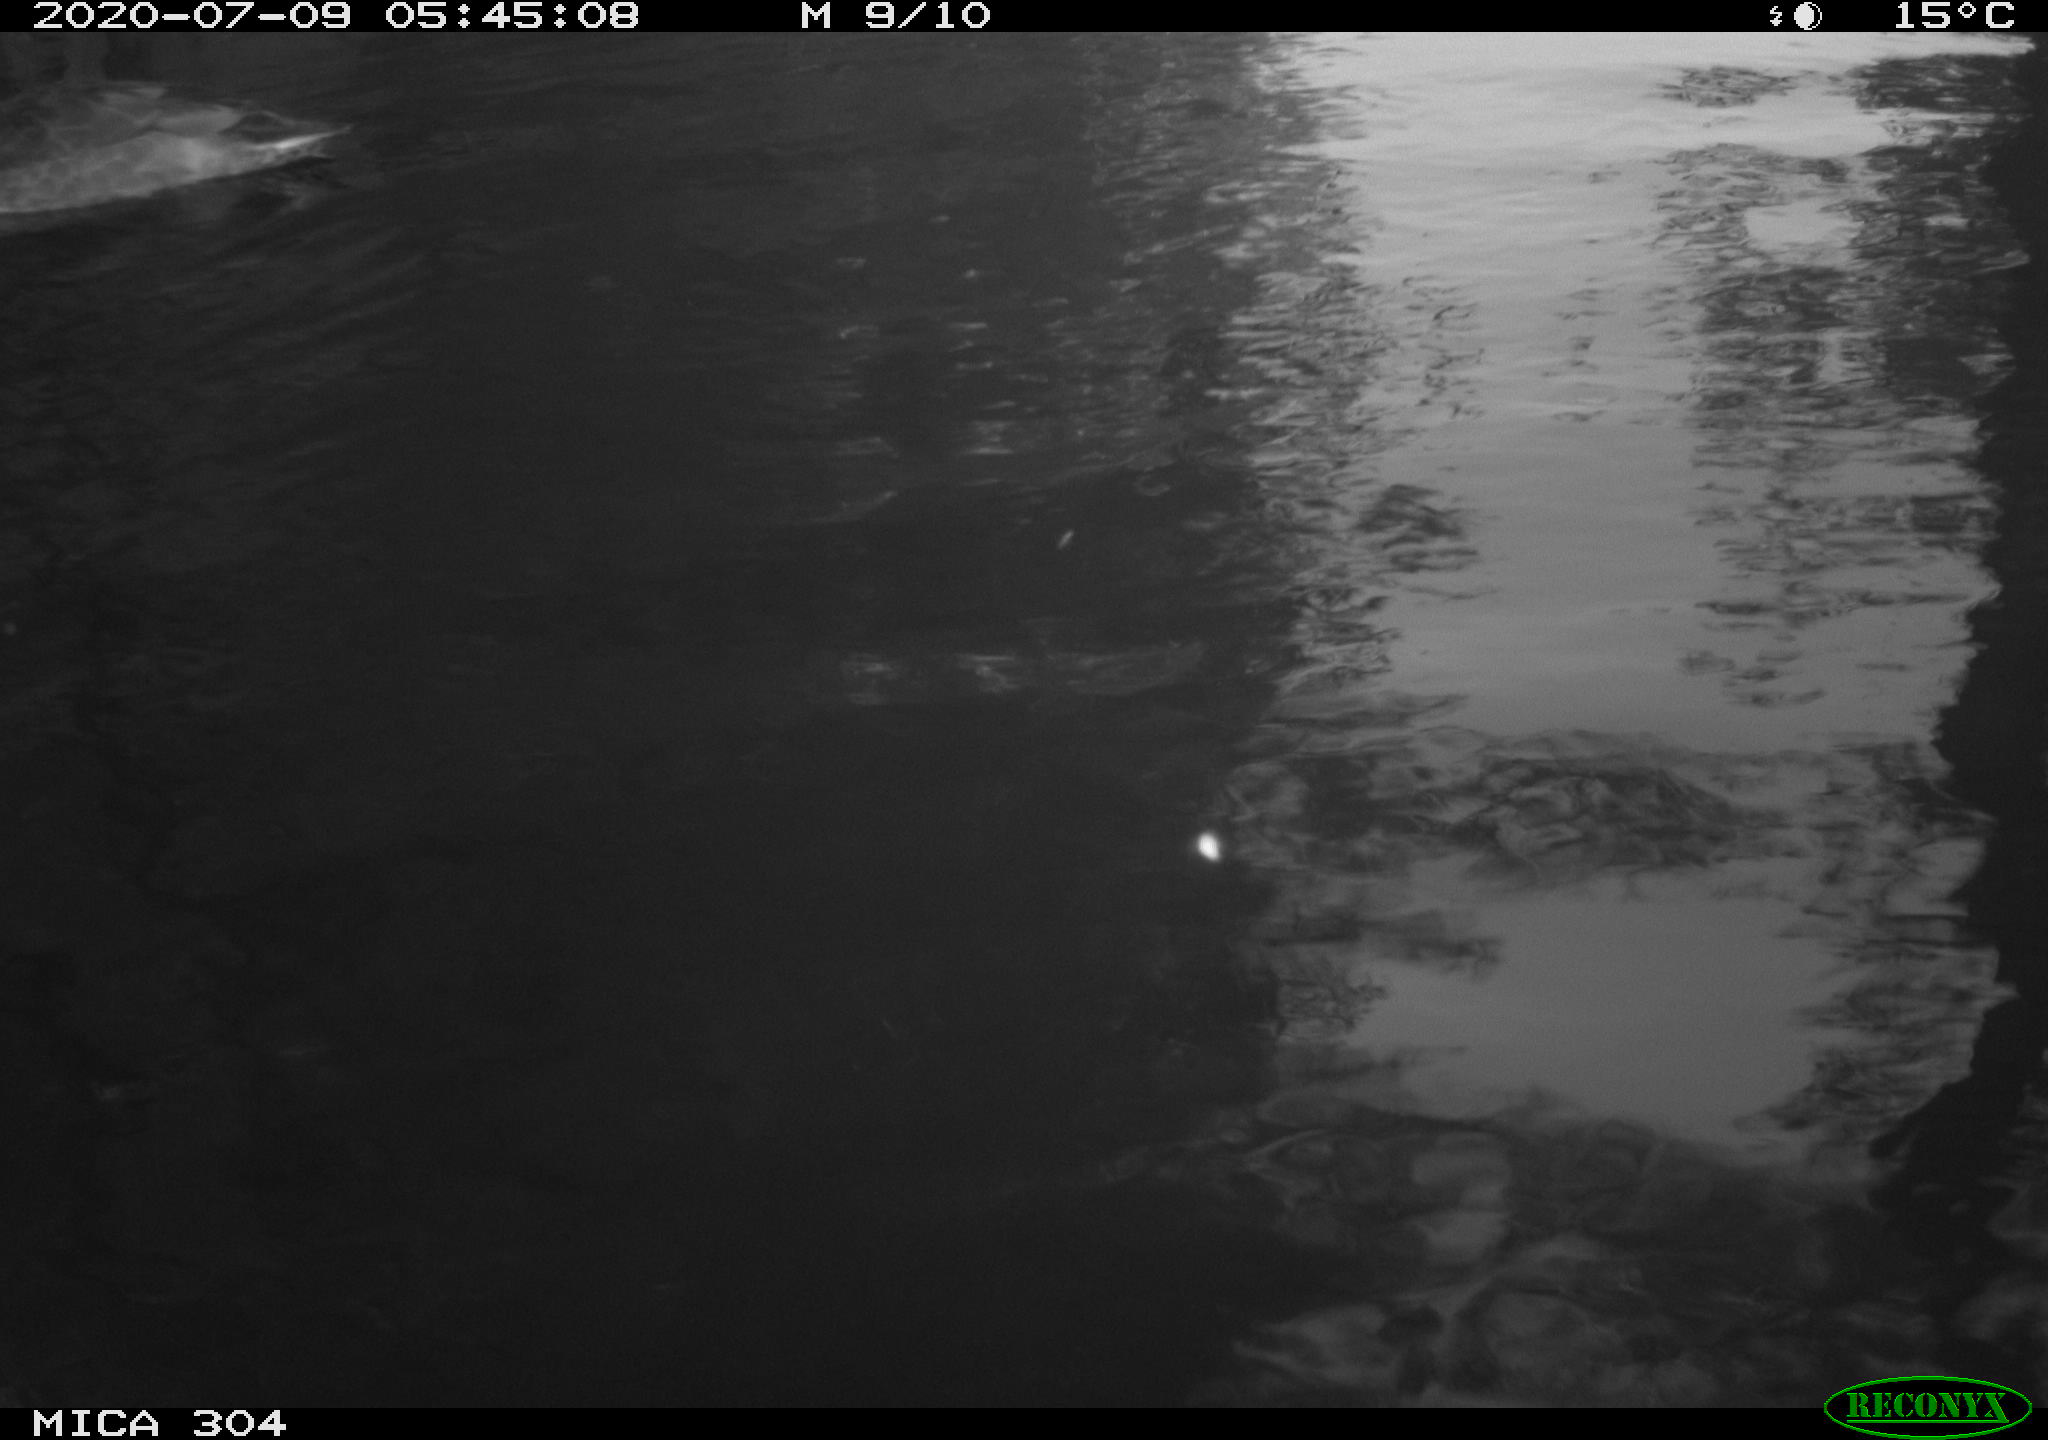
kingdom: Animalia
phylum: Chordata
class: Aves
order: Anseriformes
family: Anatidae
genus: Anas
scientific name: Anas platyrhynchos
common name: Mallard
